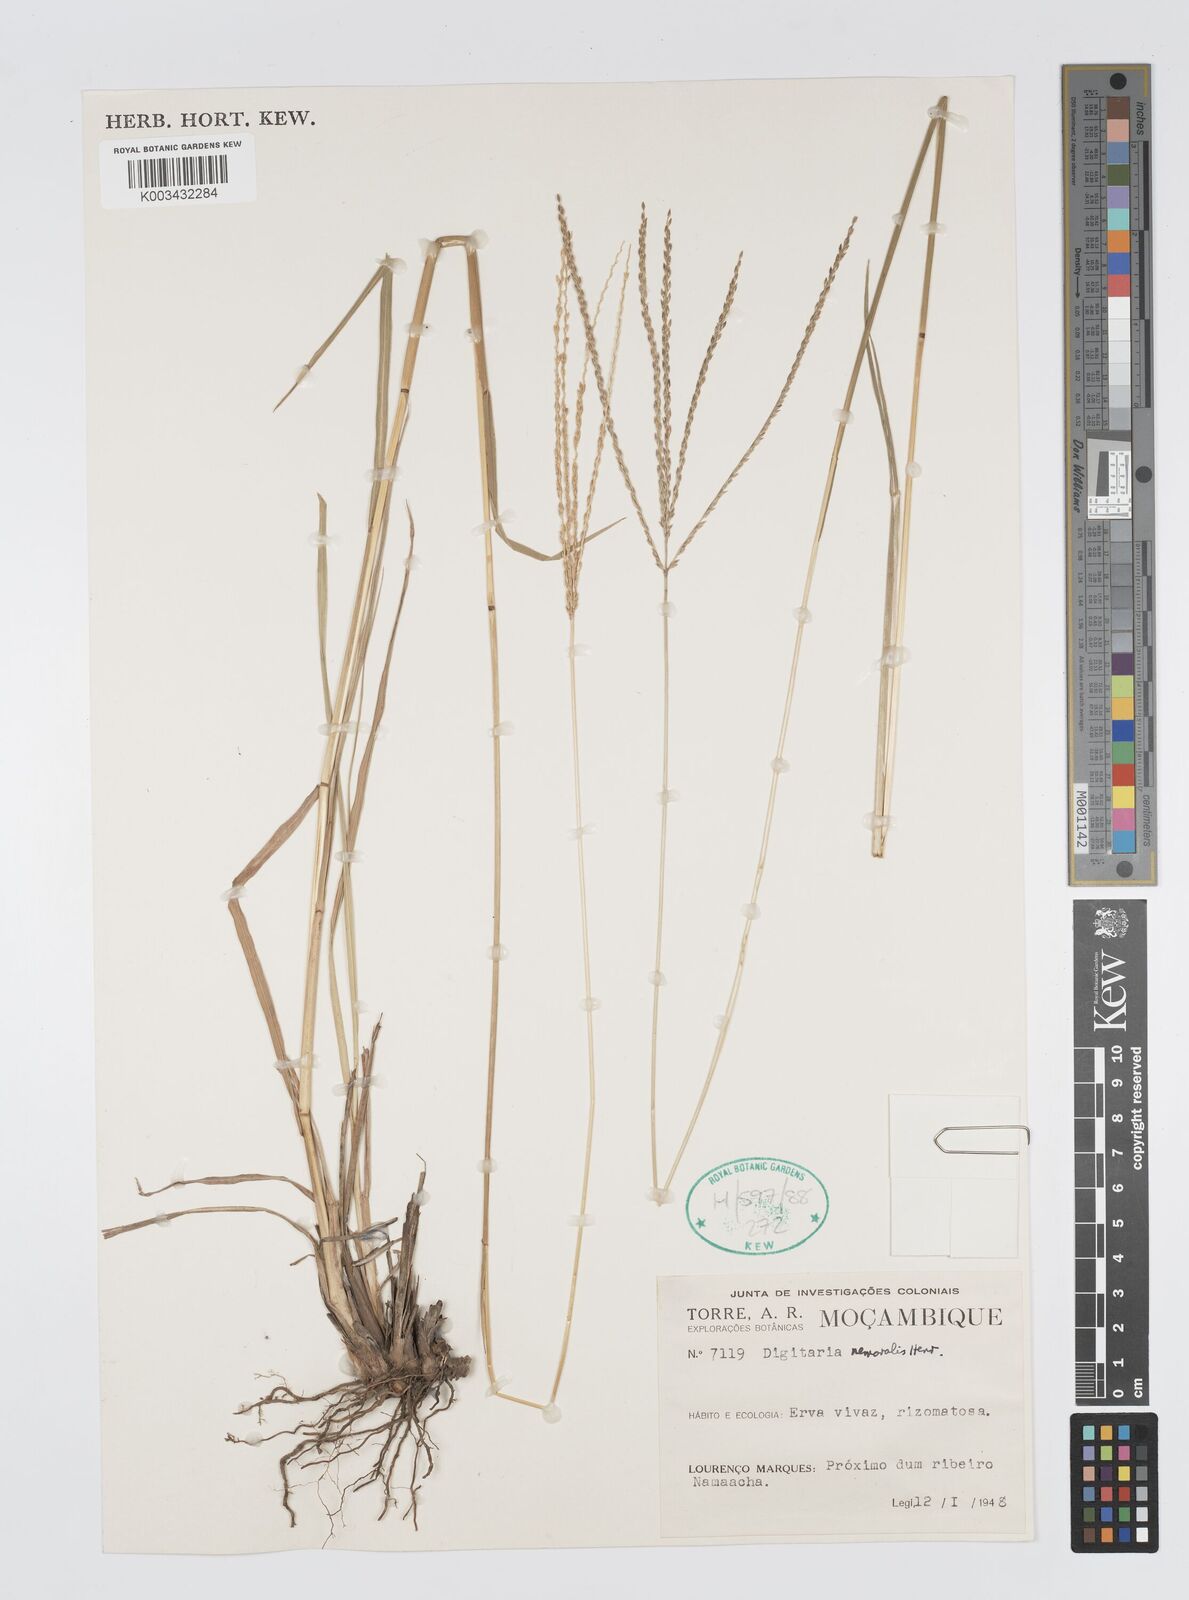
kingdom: Plantae
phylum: Tracheophyta
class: Liliopsida
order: Poales
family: Poaceae
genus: Digitaria
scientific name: Digitaria seriata
